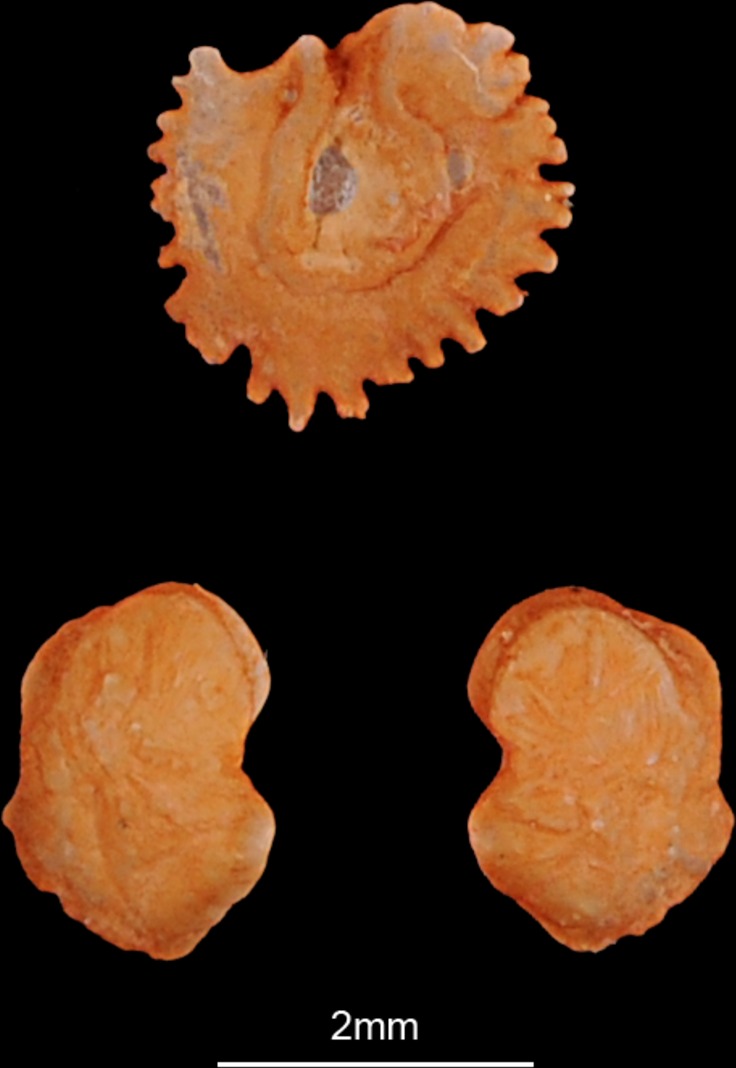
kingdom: Animalia
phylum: Chordata
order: Cypriniformes
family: Cyprinidae
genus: Vimba
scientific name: Vimba vimba
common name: Vimba
